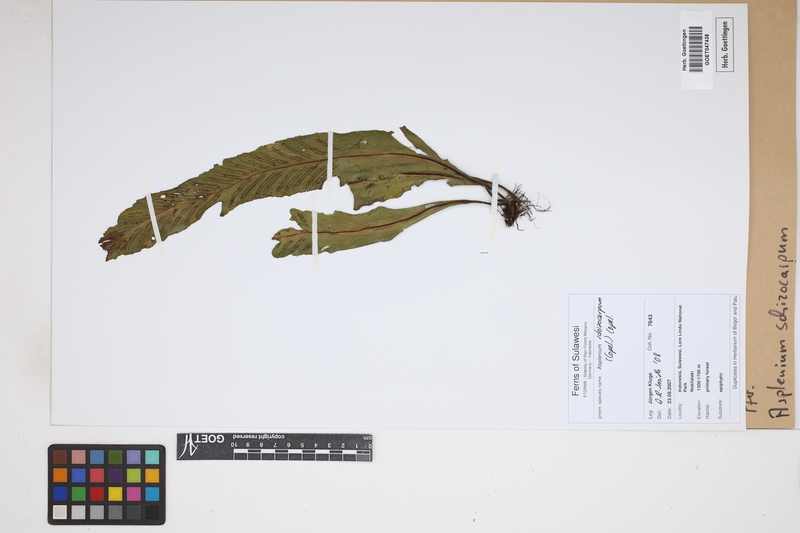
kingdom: Plantae
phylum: Tracheophyta
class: Polypodiopsida
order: Polypodiales
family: Aspleniaceae
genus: Asplenium
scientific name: Asplenium schizocarpum
